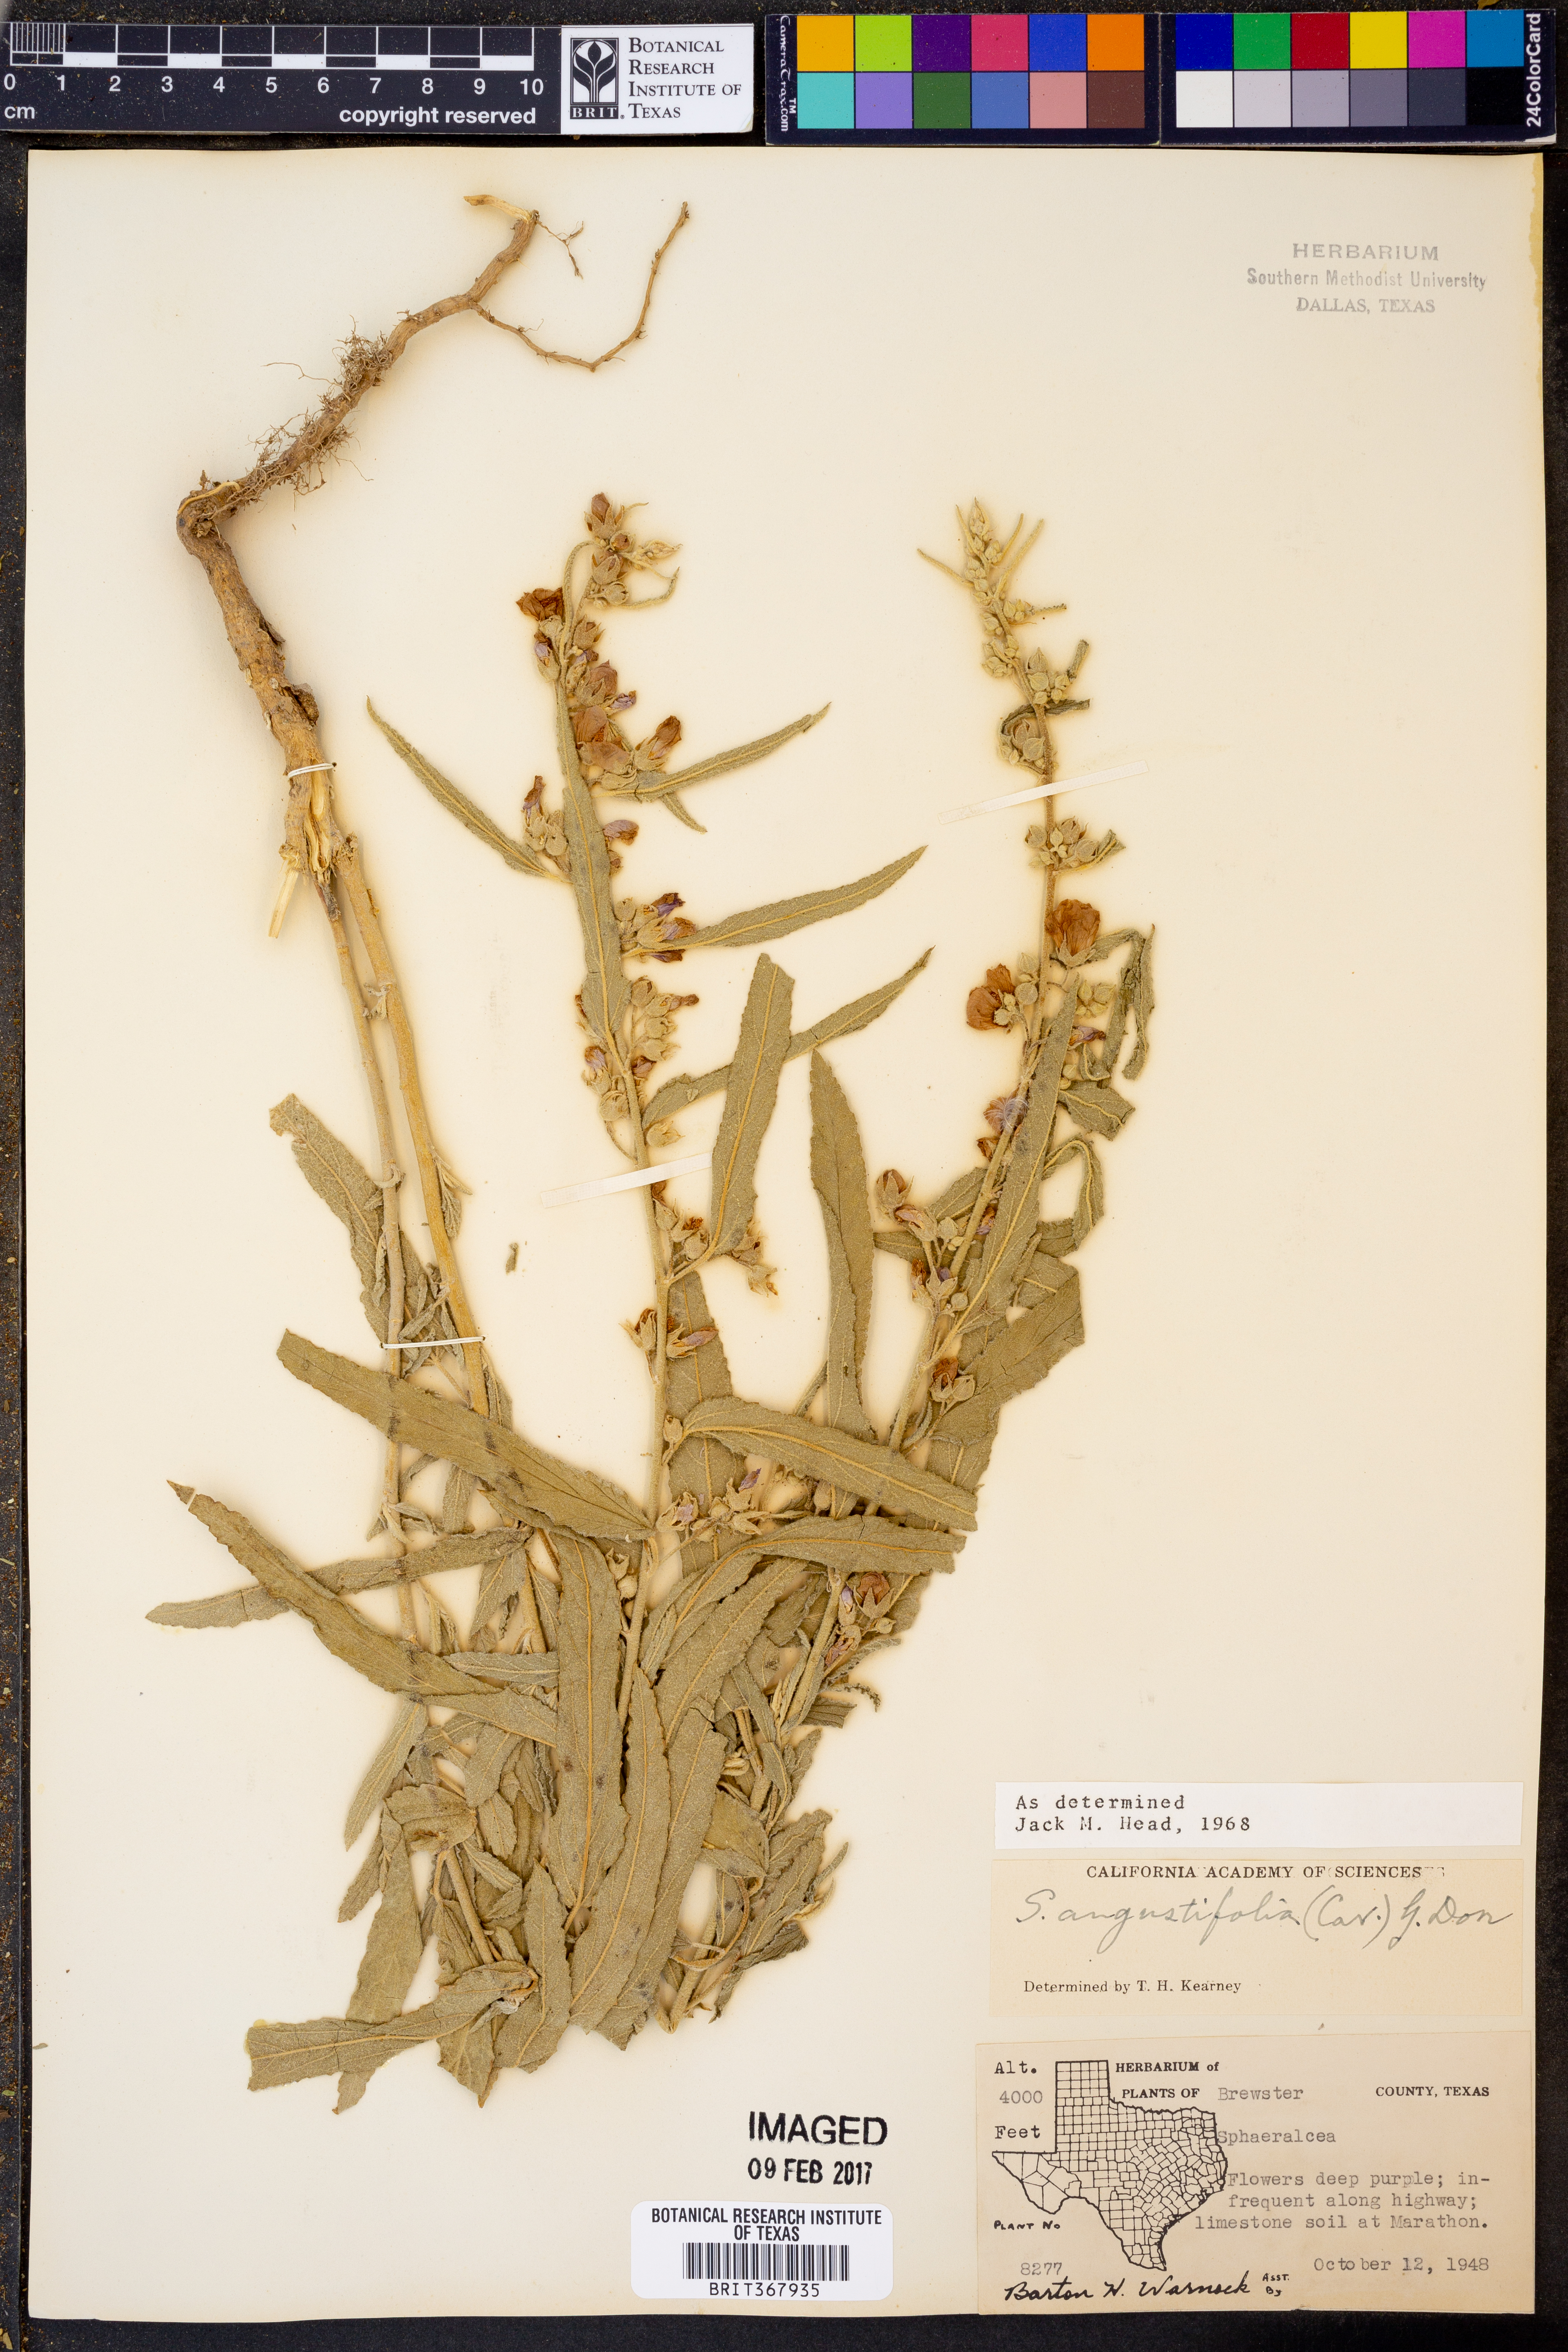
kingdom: Plantae
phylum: Tracheophyta
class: Magnoliopsida
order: Malvales
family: Malvaceae
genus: Sphaeralcea
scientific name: Sphaeralcea angustifolia
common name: Copper globe-mallow
